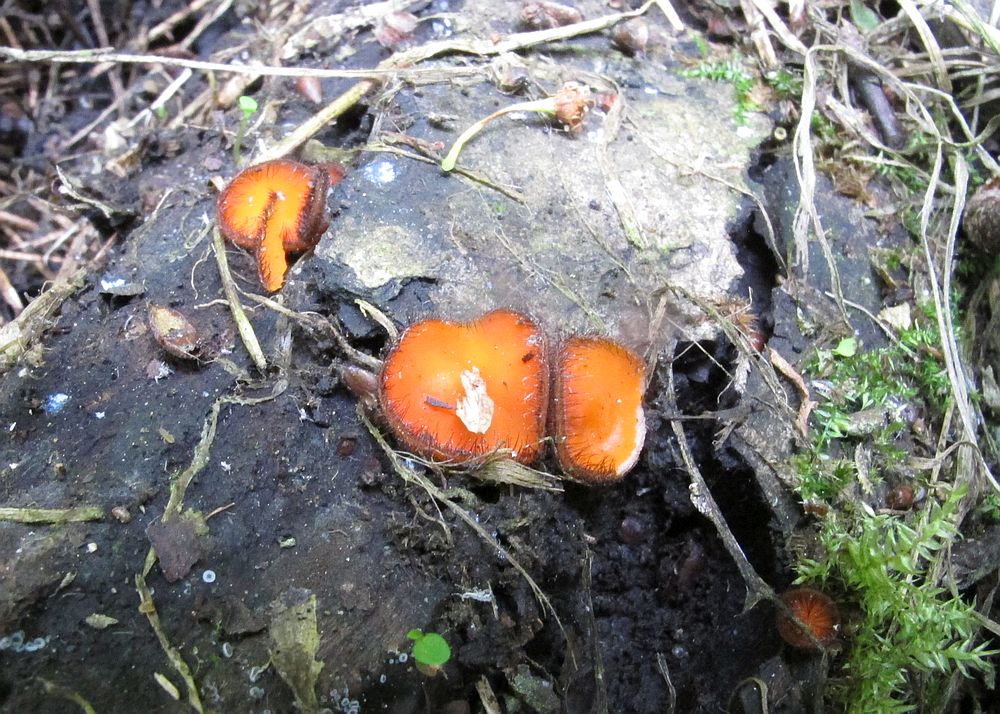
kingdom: Fungi
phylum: Ascomycota
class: Pezizomycetes
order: Pezizales
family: Pyronemataceae
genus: Scutellinia
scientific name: Scutellinia scutellata
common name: frynset skjoldbæger
